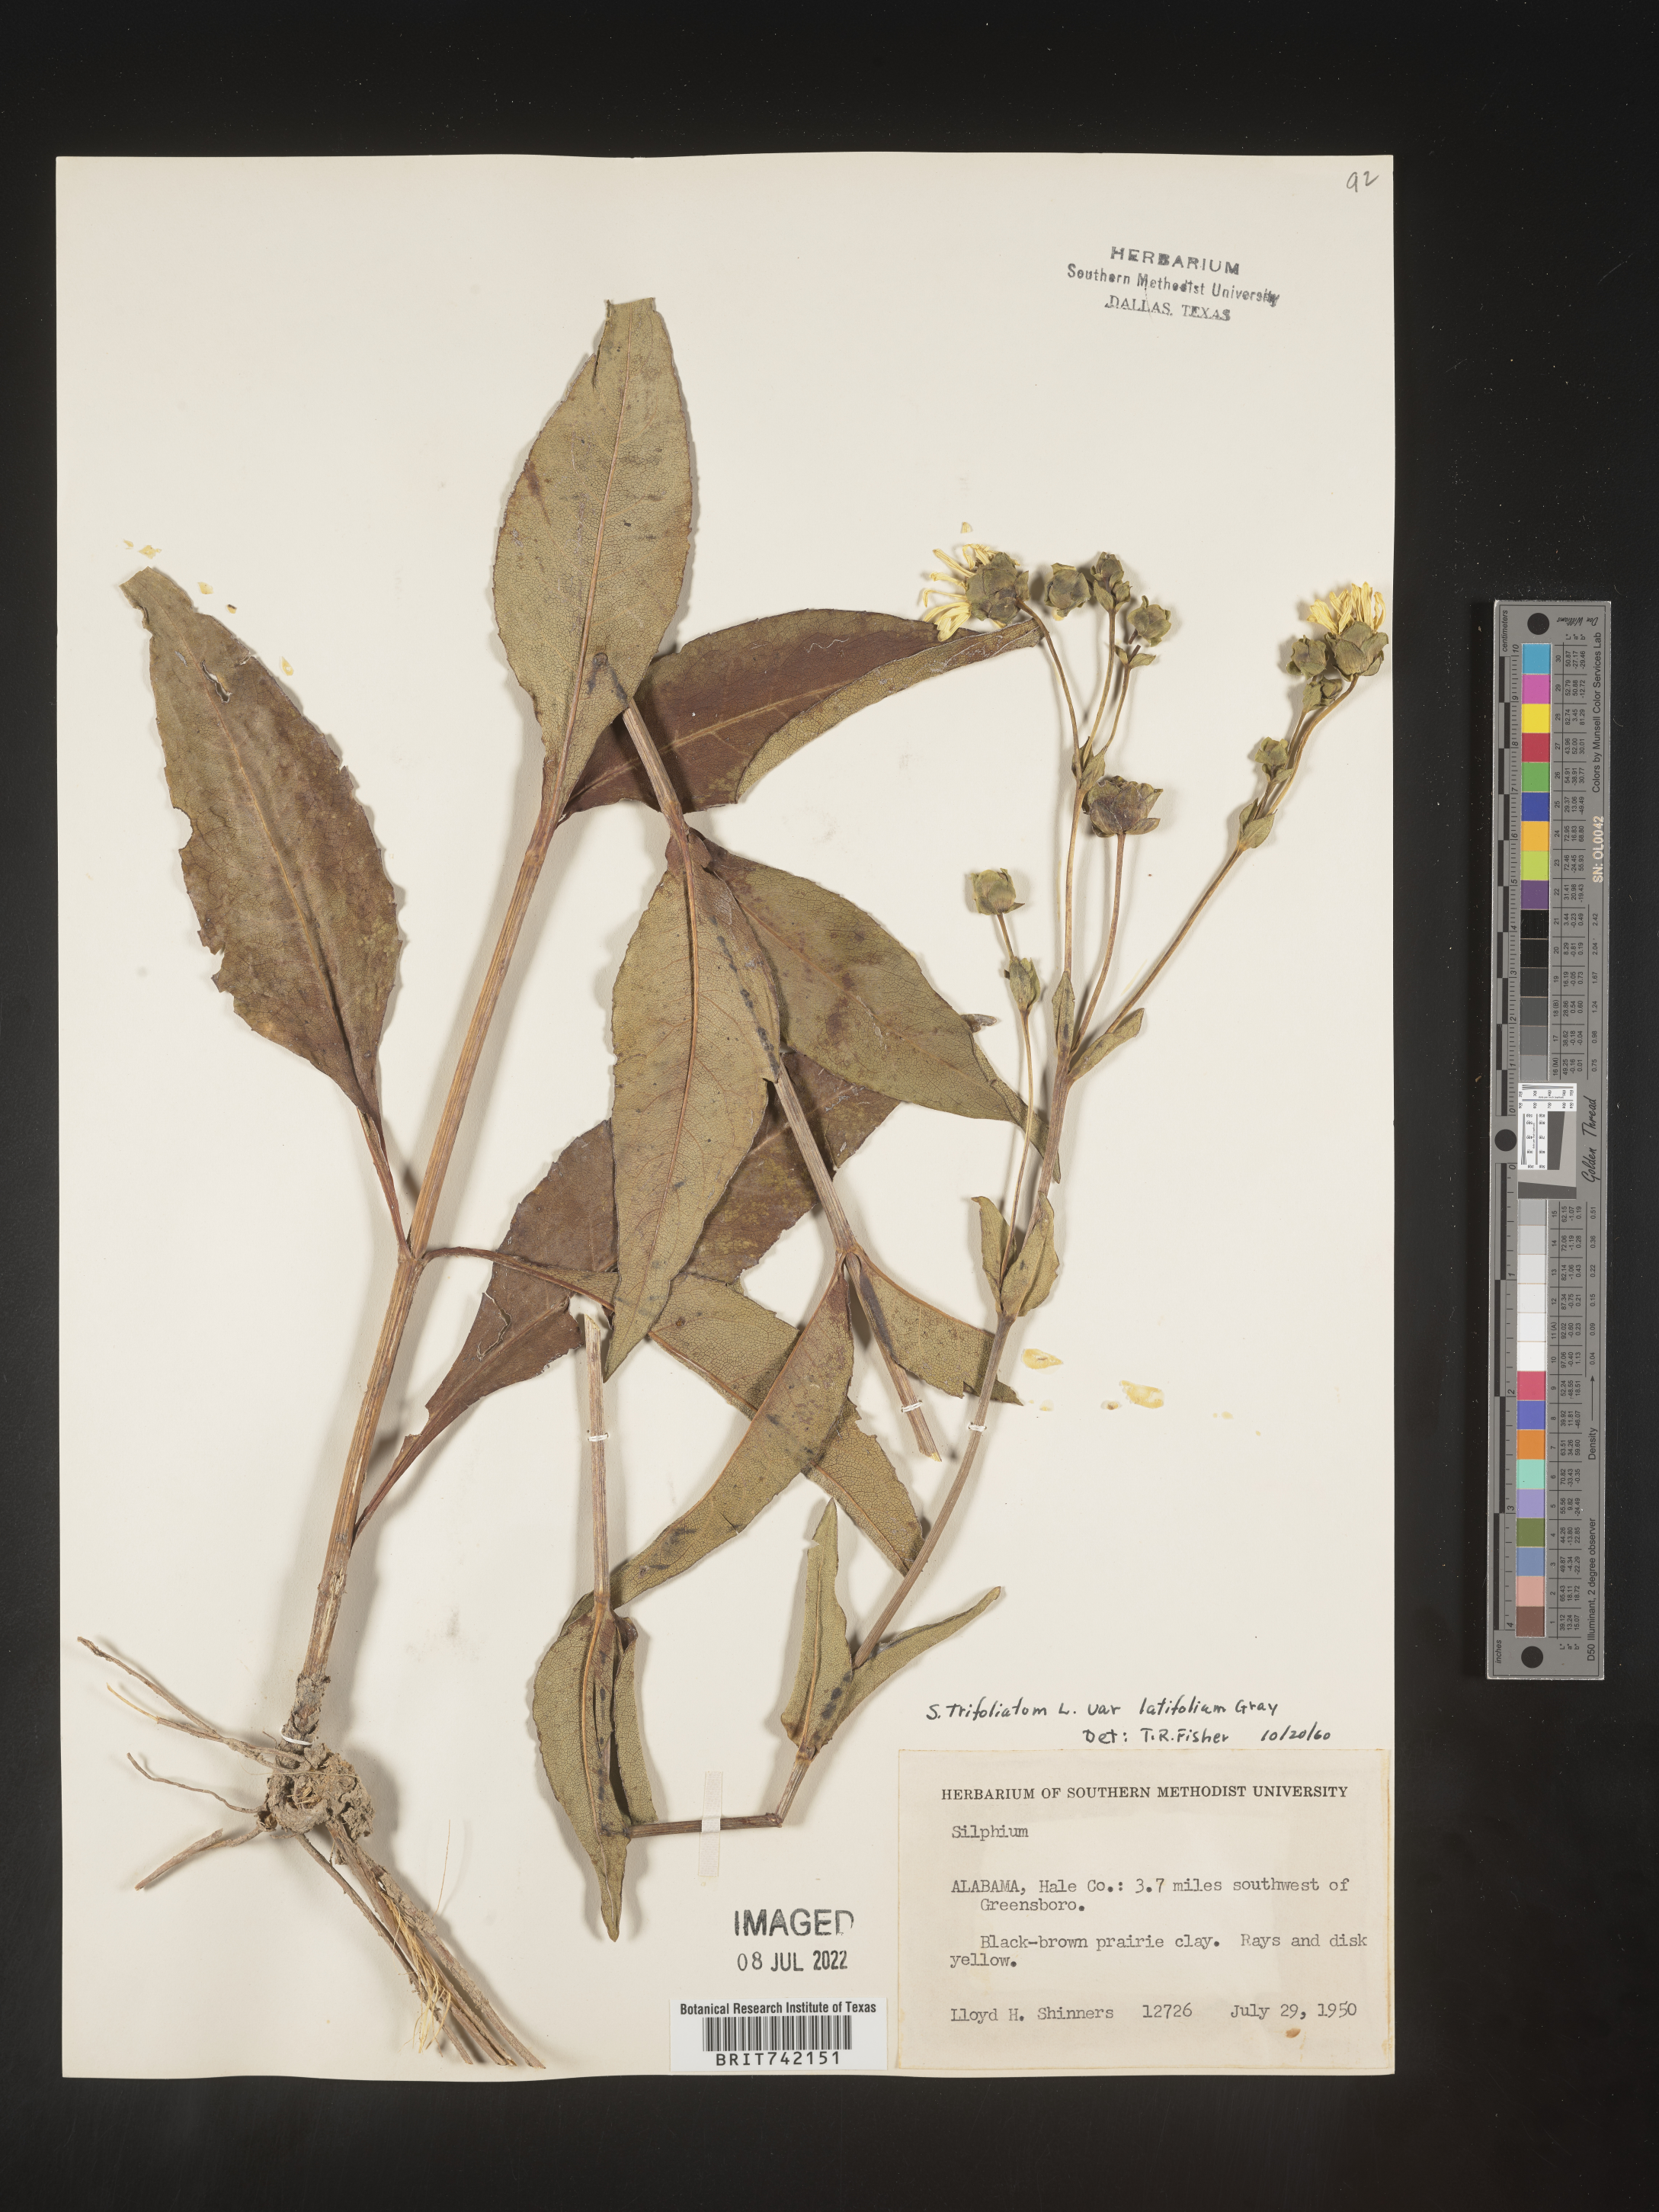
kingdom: Plantae
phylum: Tracheophyta
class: Magnoliopsida
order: Asterales
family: Asteraceae
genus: Silphium
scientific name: Silphium glabrum
